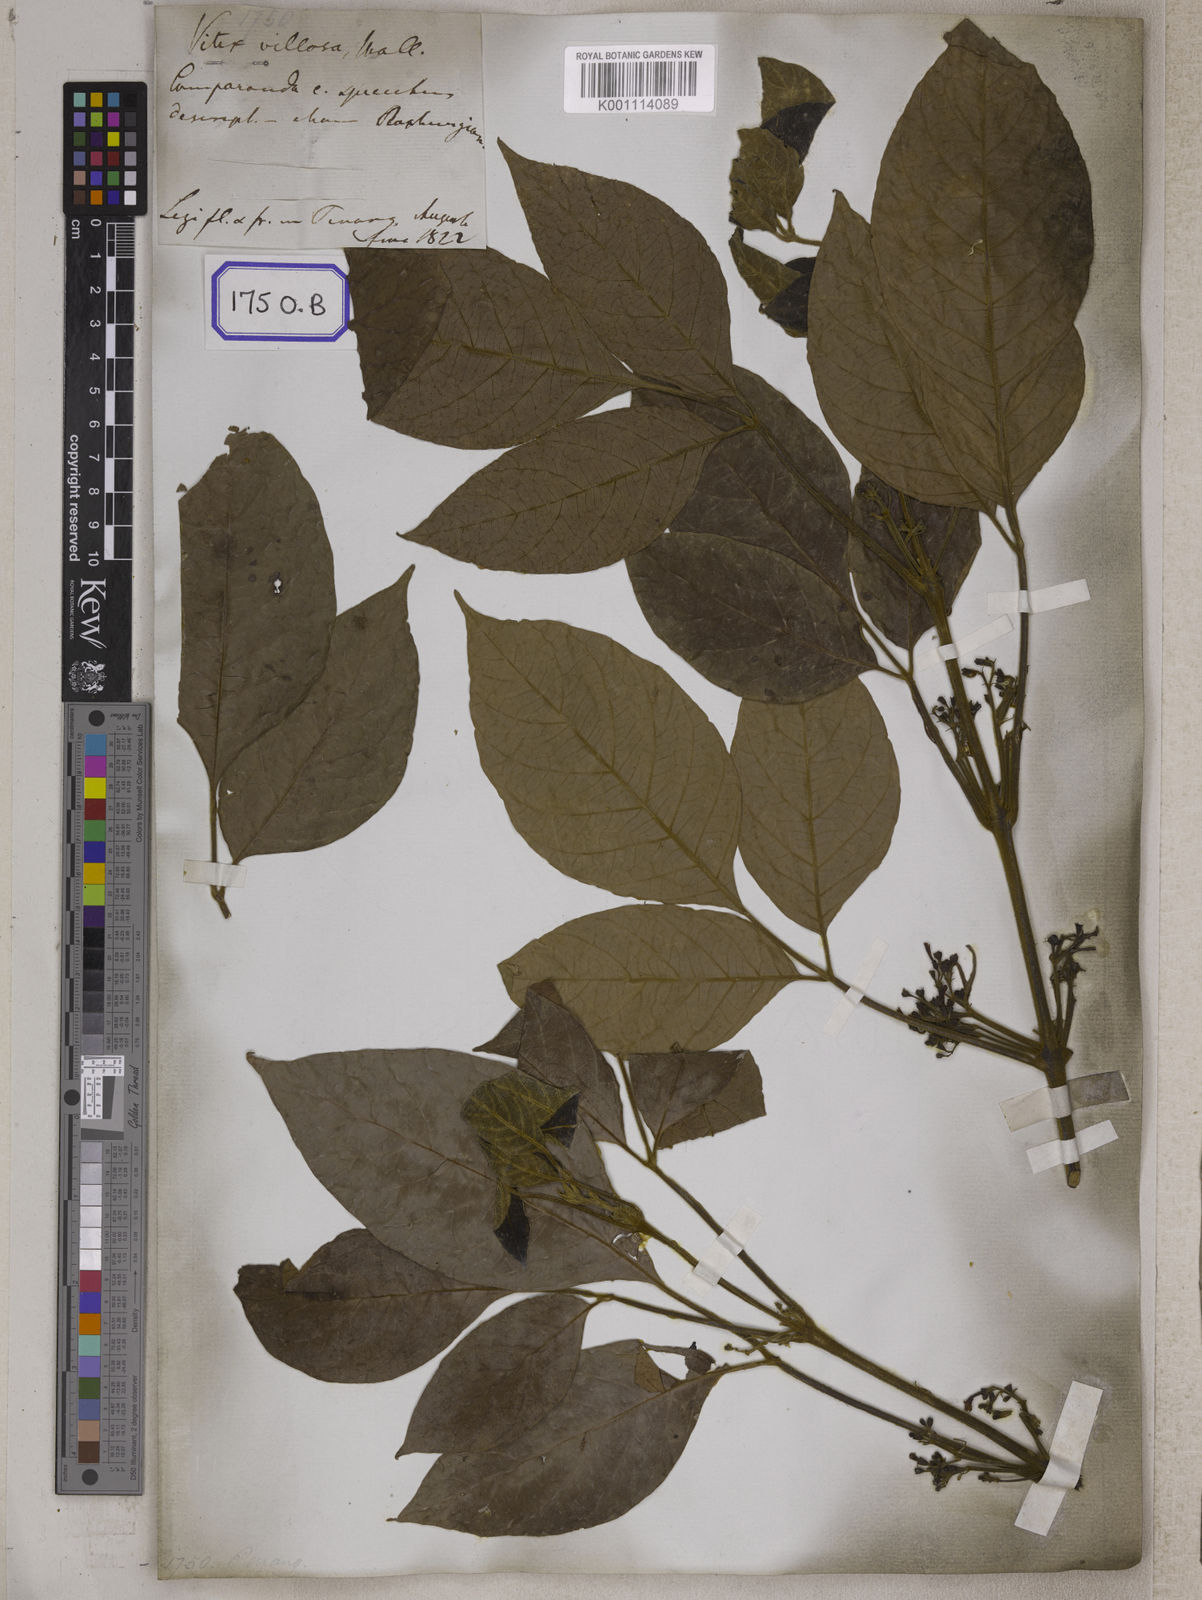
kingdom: Plantae
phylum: Tracheophyta
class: Magnoliopsida
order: Lamiales
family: Lamiaceae
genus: Vitex
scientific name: Vitex vestita
